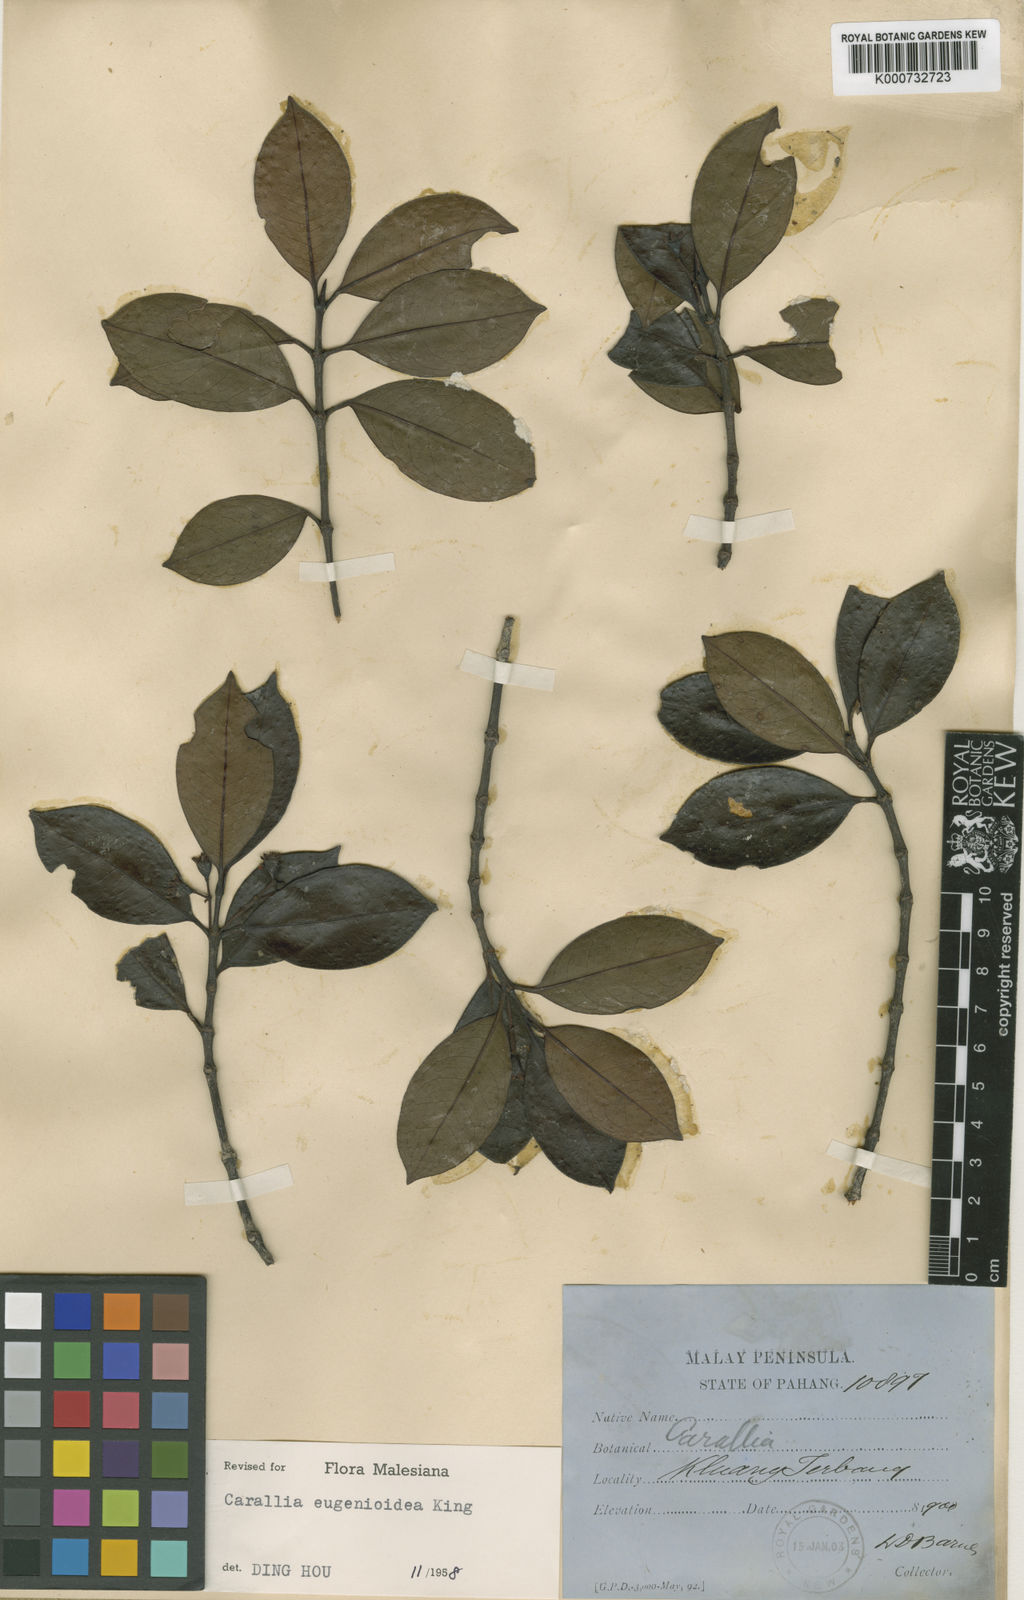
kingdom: Plantae
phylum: Tracheophyta
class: Magnoliopsida
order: Malpighiales
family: Rhizophoraceae
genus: Carallia
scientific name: Carallia
